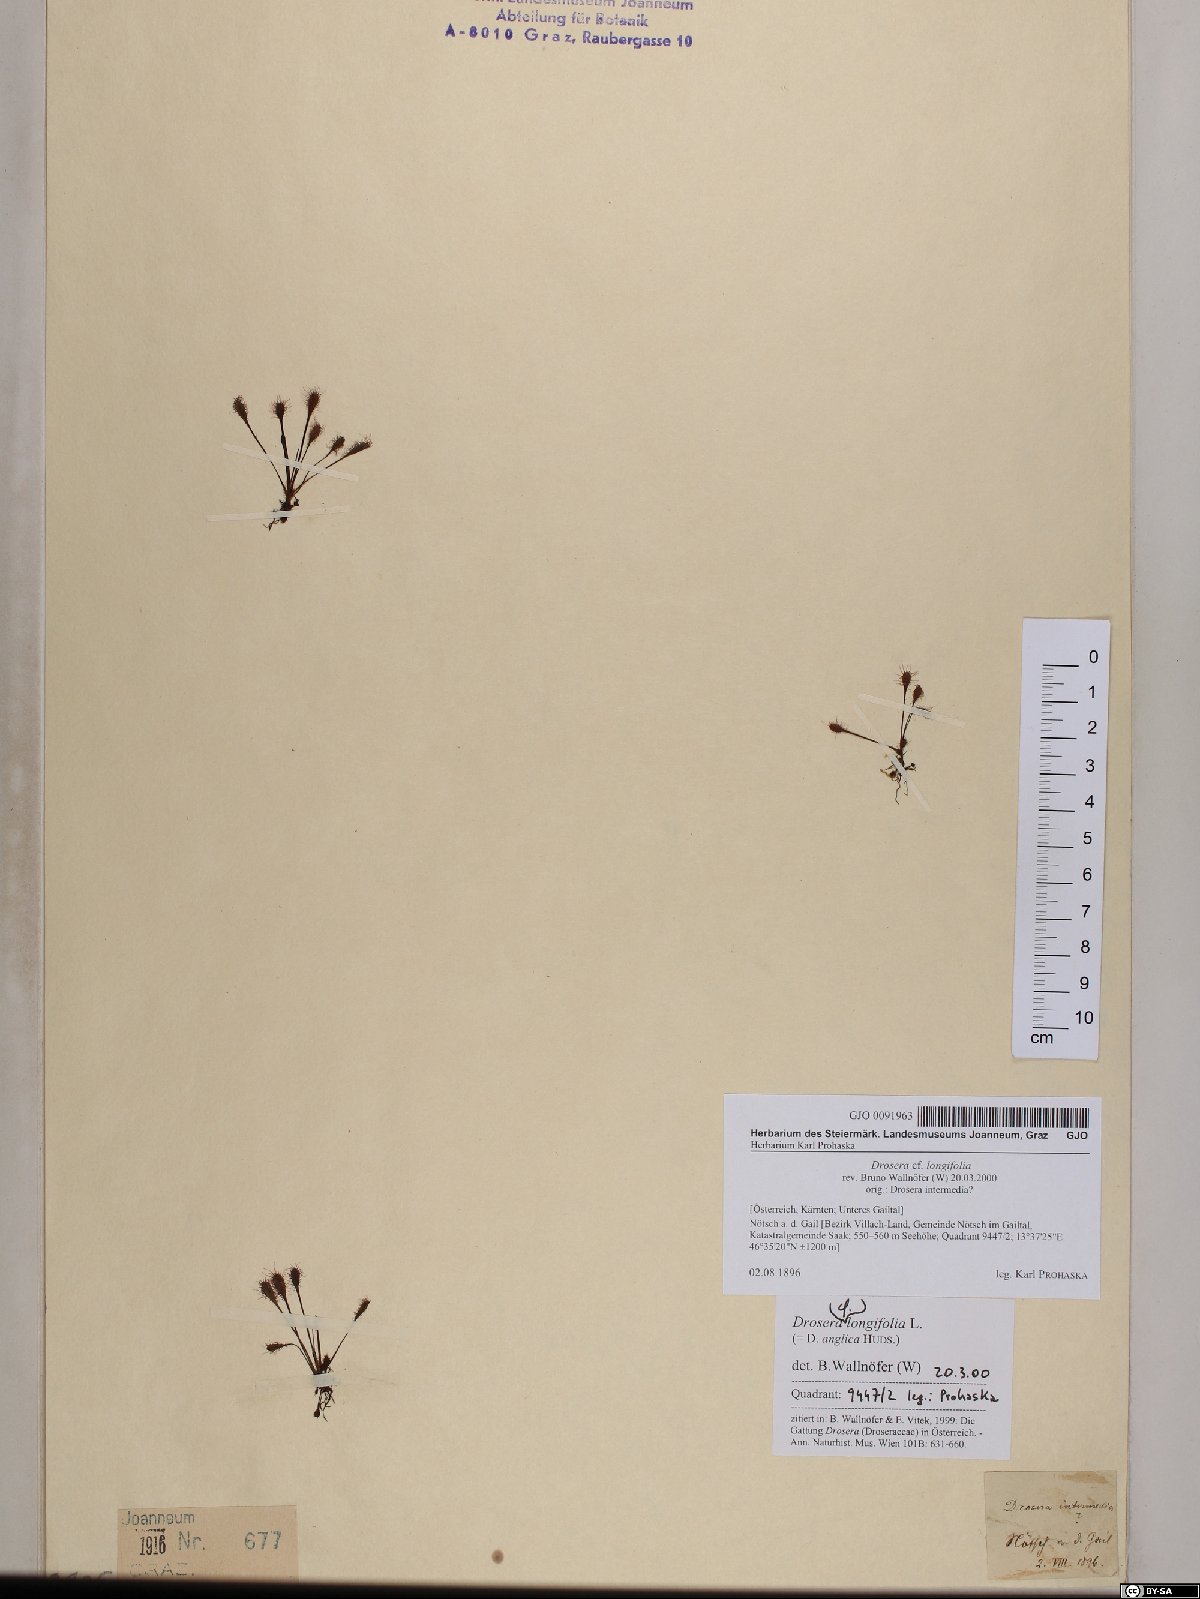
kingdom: Plantae
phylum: Tracheophyta
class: Magnoliopsida
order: Caryophyllales
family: Droseraceae
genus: Drosera
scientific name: Drosera anglica
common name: Great sundew
